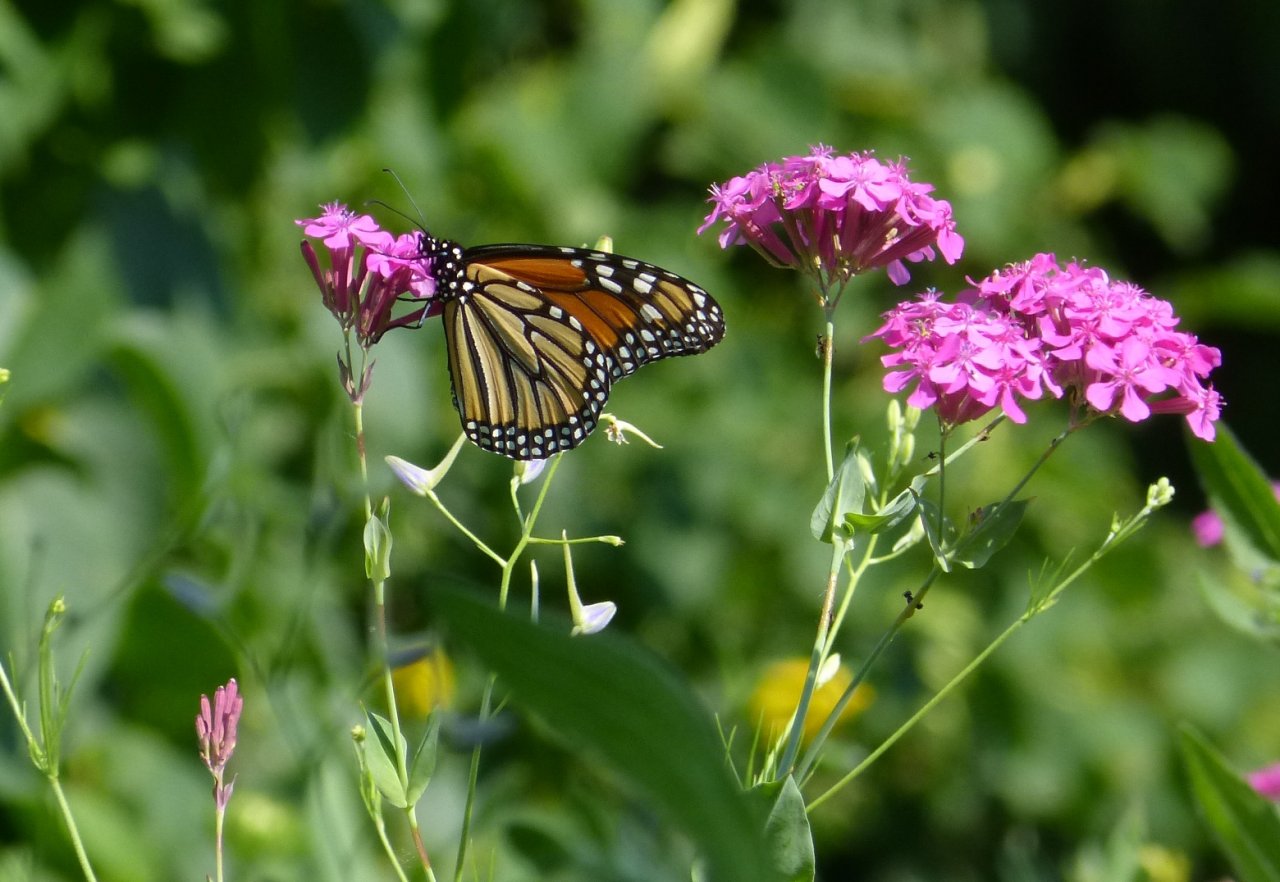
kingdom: Animalia
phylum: Arthropoda
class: Insecta
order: Lepidoptera
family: Nymphalidae
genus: Danaus
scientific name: Danaus plexippus
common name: Monarch
